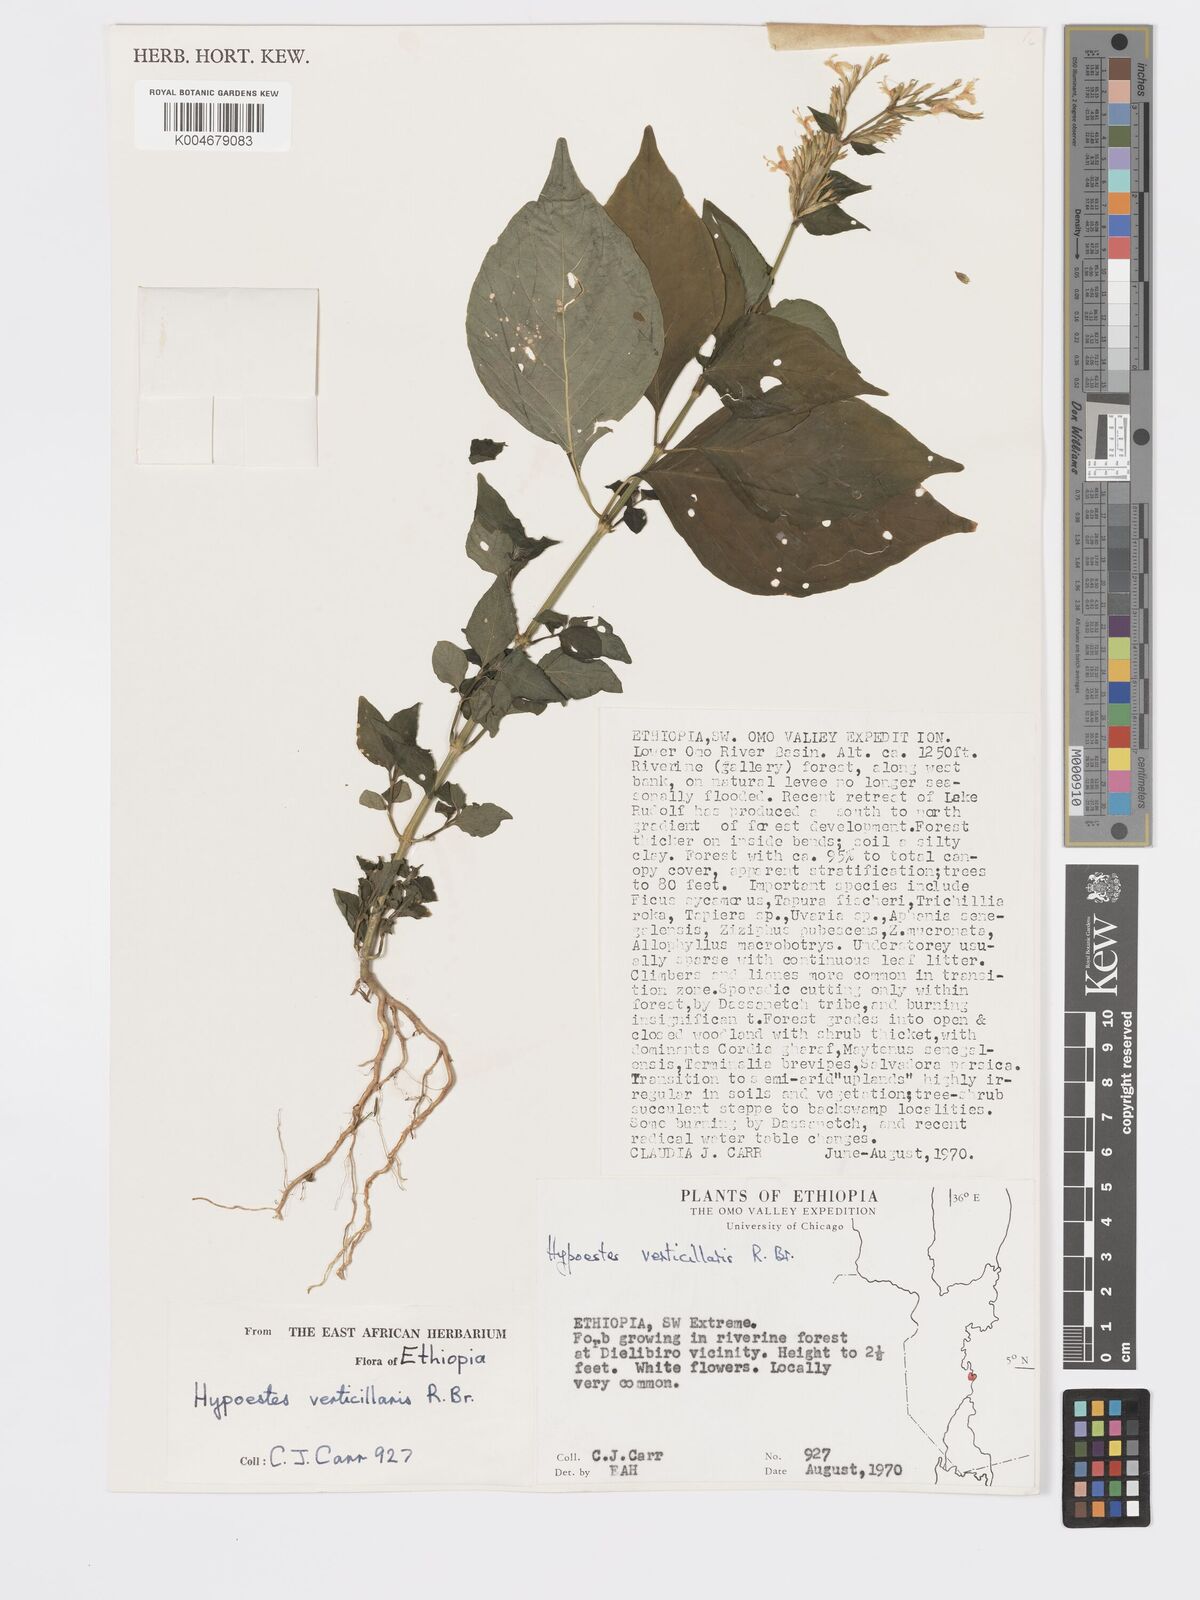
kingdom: Plantae
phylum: Tracheophyta
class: Magnoliopsida
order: Lamiales
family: Acanthaceae
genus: Hypoestes
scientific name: Hypoestes forskaolii
